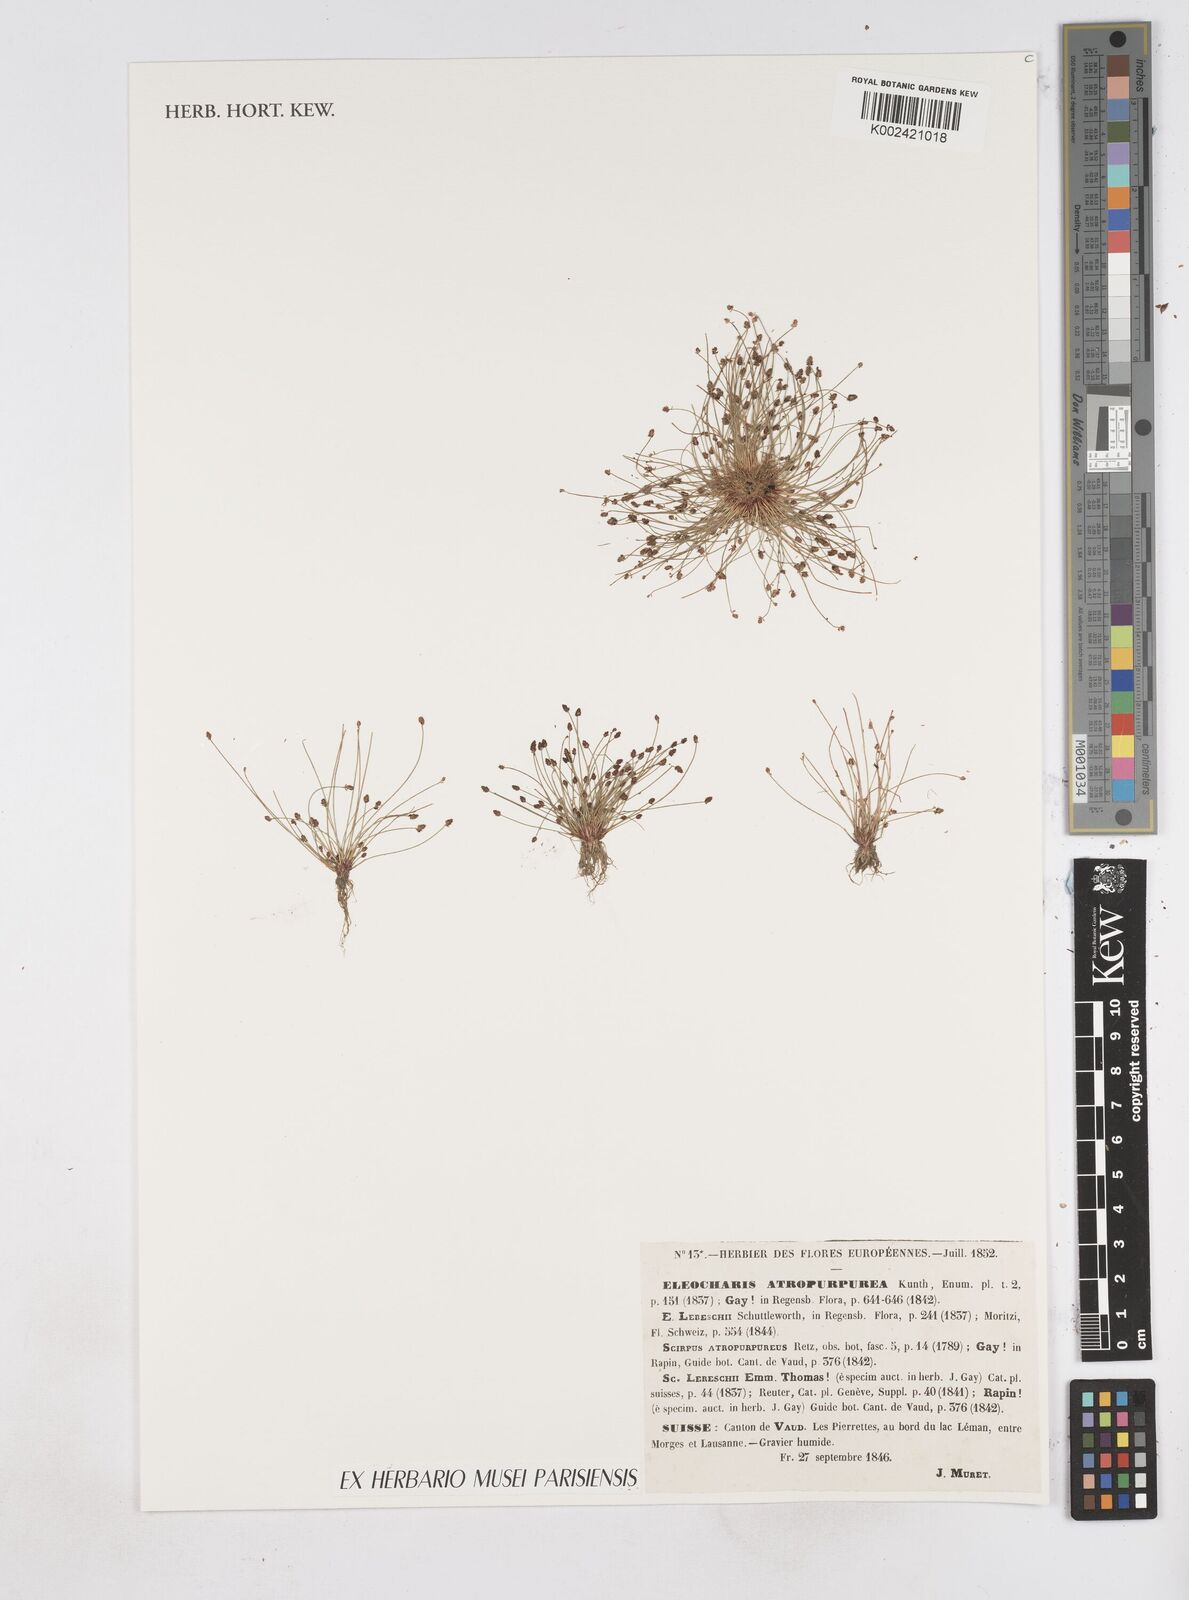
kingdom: Plantae
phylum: Tracheophyta
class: Liliopsida
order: Poales
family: Cyperaceae
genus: Eleocharis
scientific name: Eleocharis atropurpurea
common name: Purple spikerush
